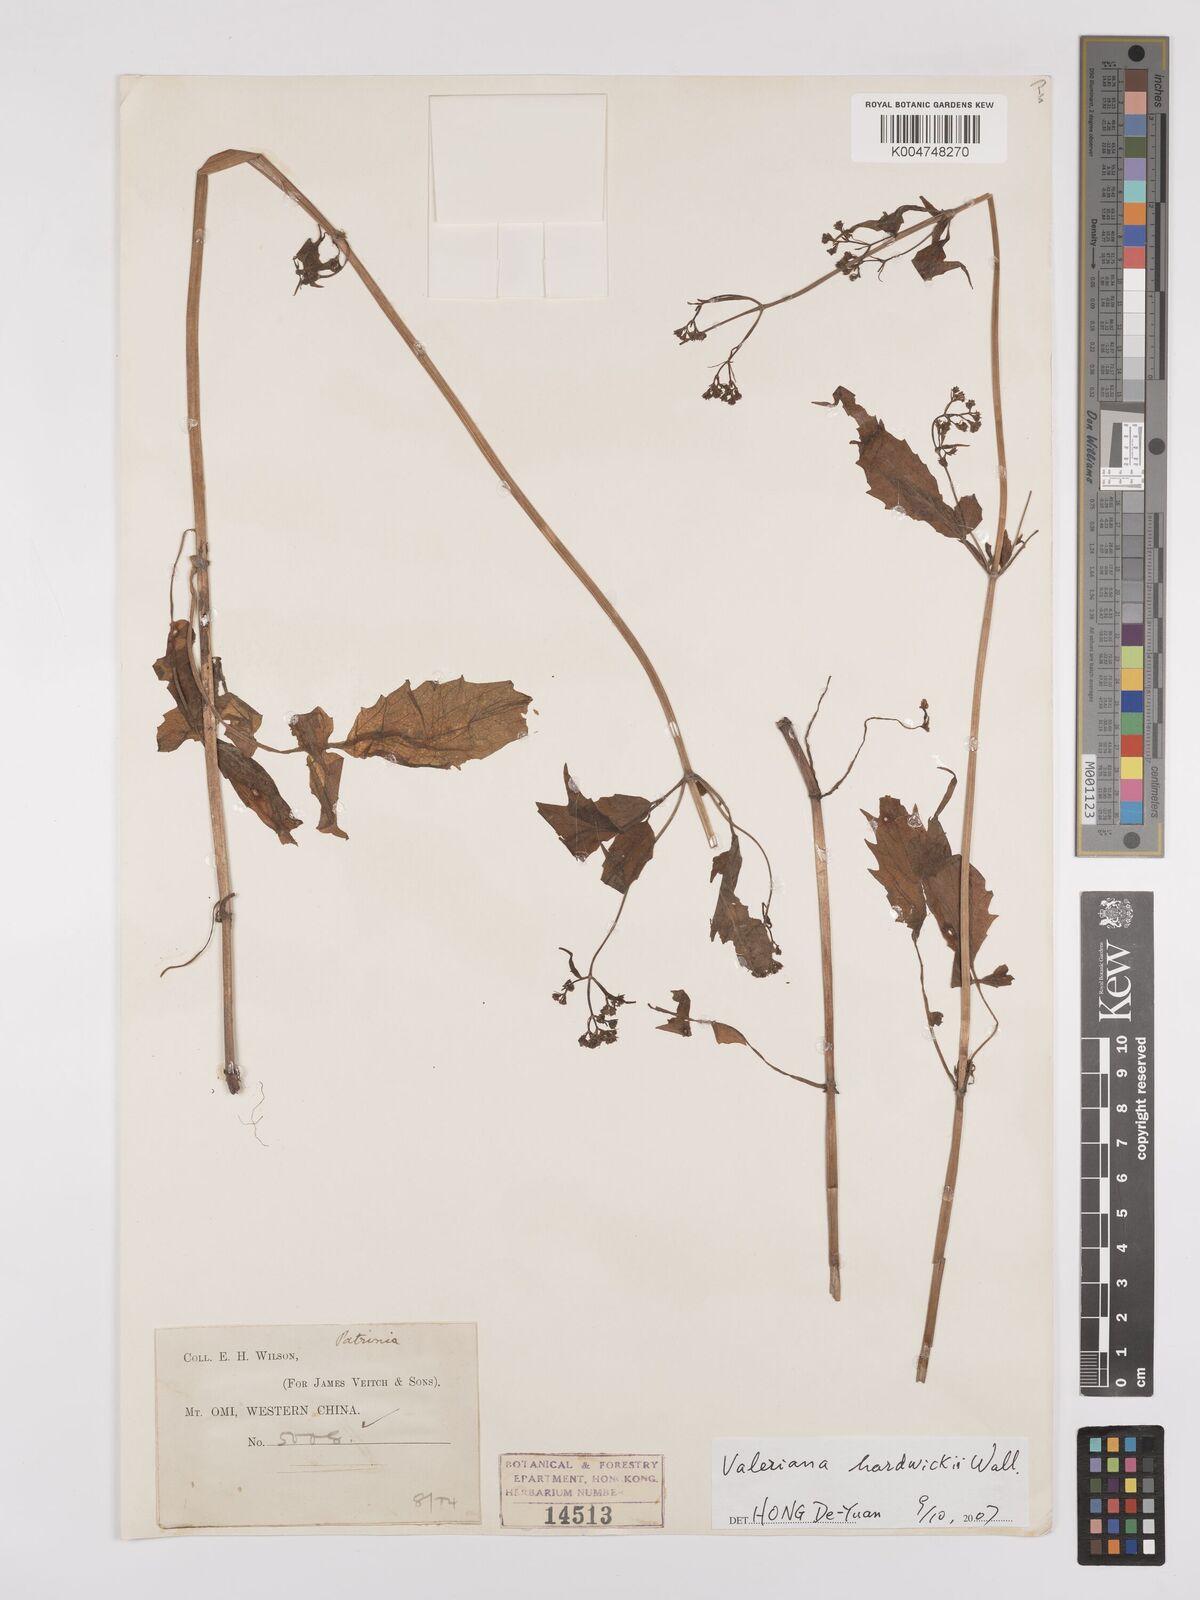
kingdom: Plantae
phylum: Tracheophyta
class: Magnoliopsida
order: Dipsacales
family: Caprifoliaceae
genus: Valeriana
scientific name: Valeriana hardwickei
